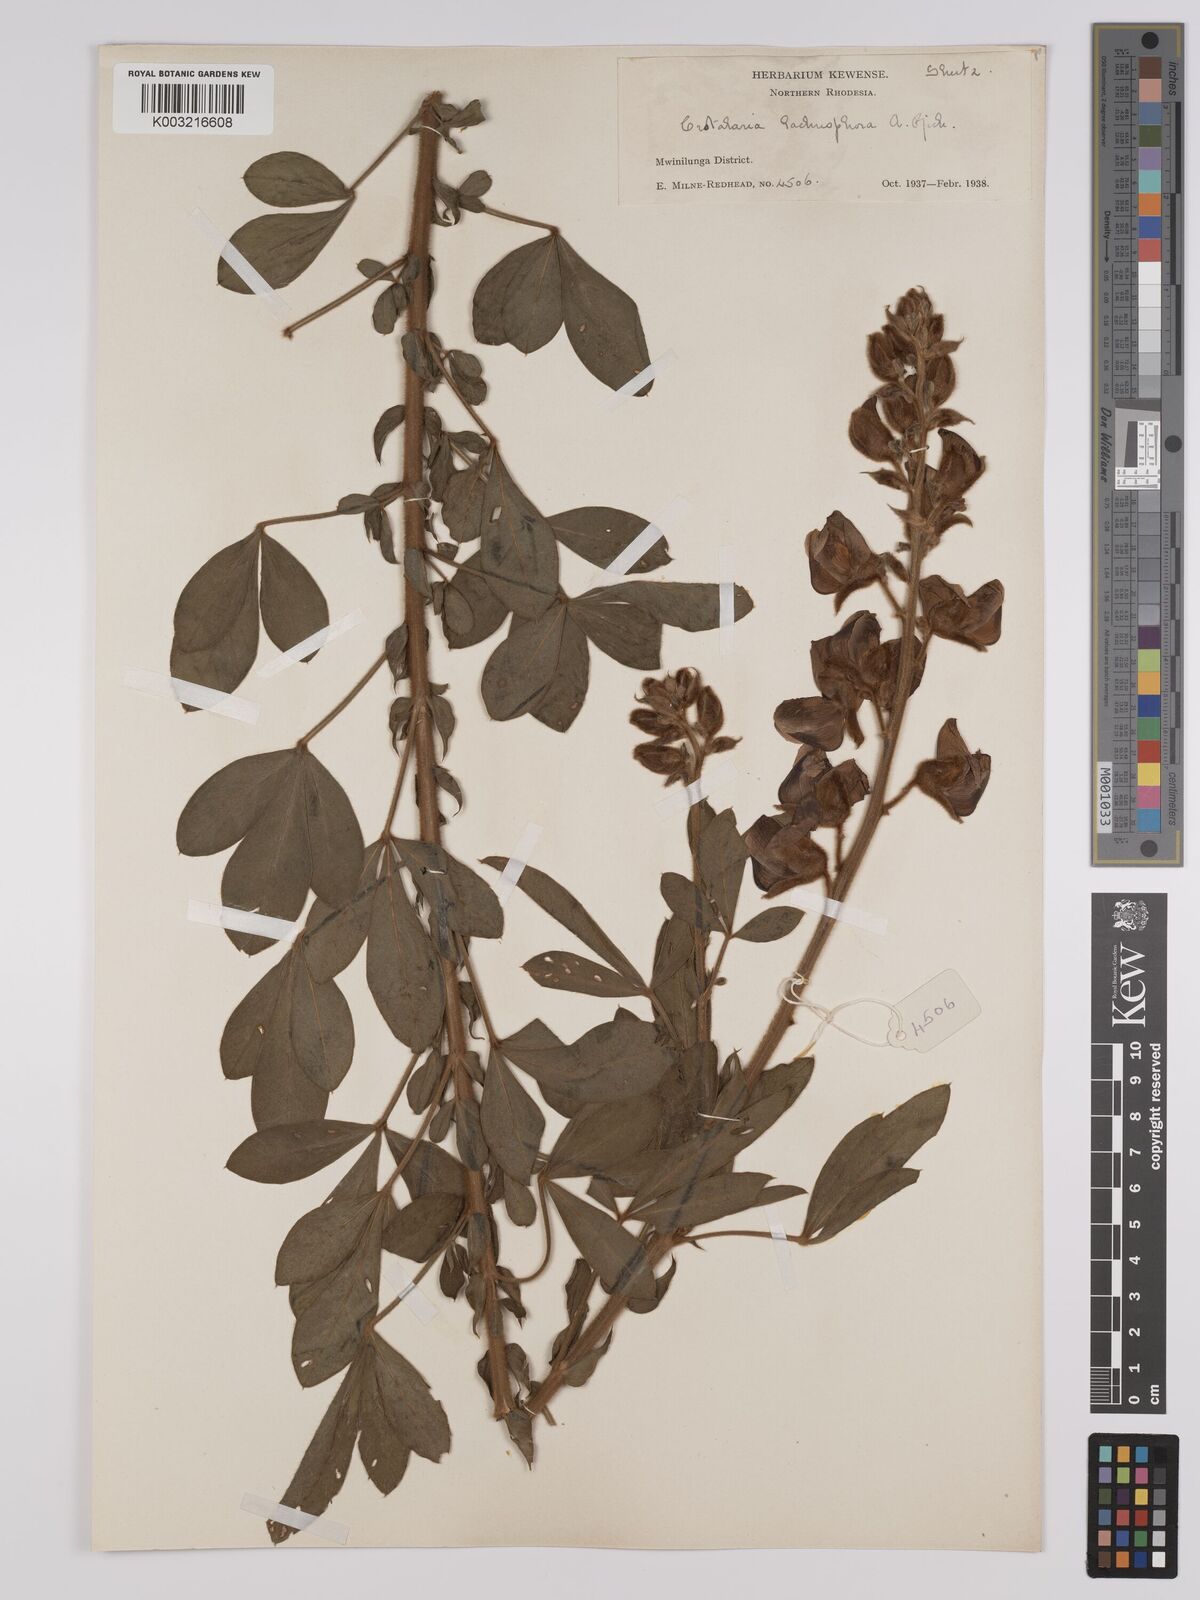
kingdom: Plantae
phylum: Tracheophyta
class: Magnoliopsida
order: Fabales
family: Fabaceae
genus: Crotalaria
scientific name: Crotalaria lachnophora
